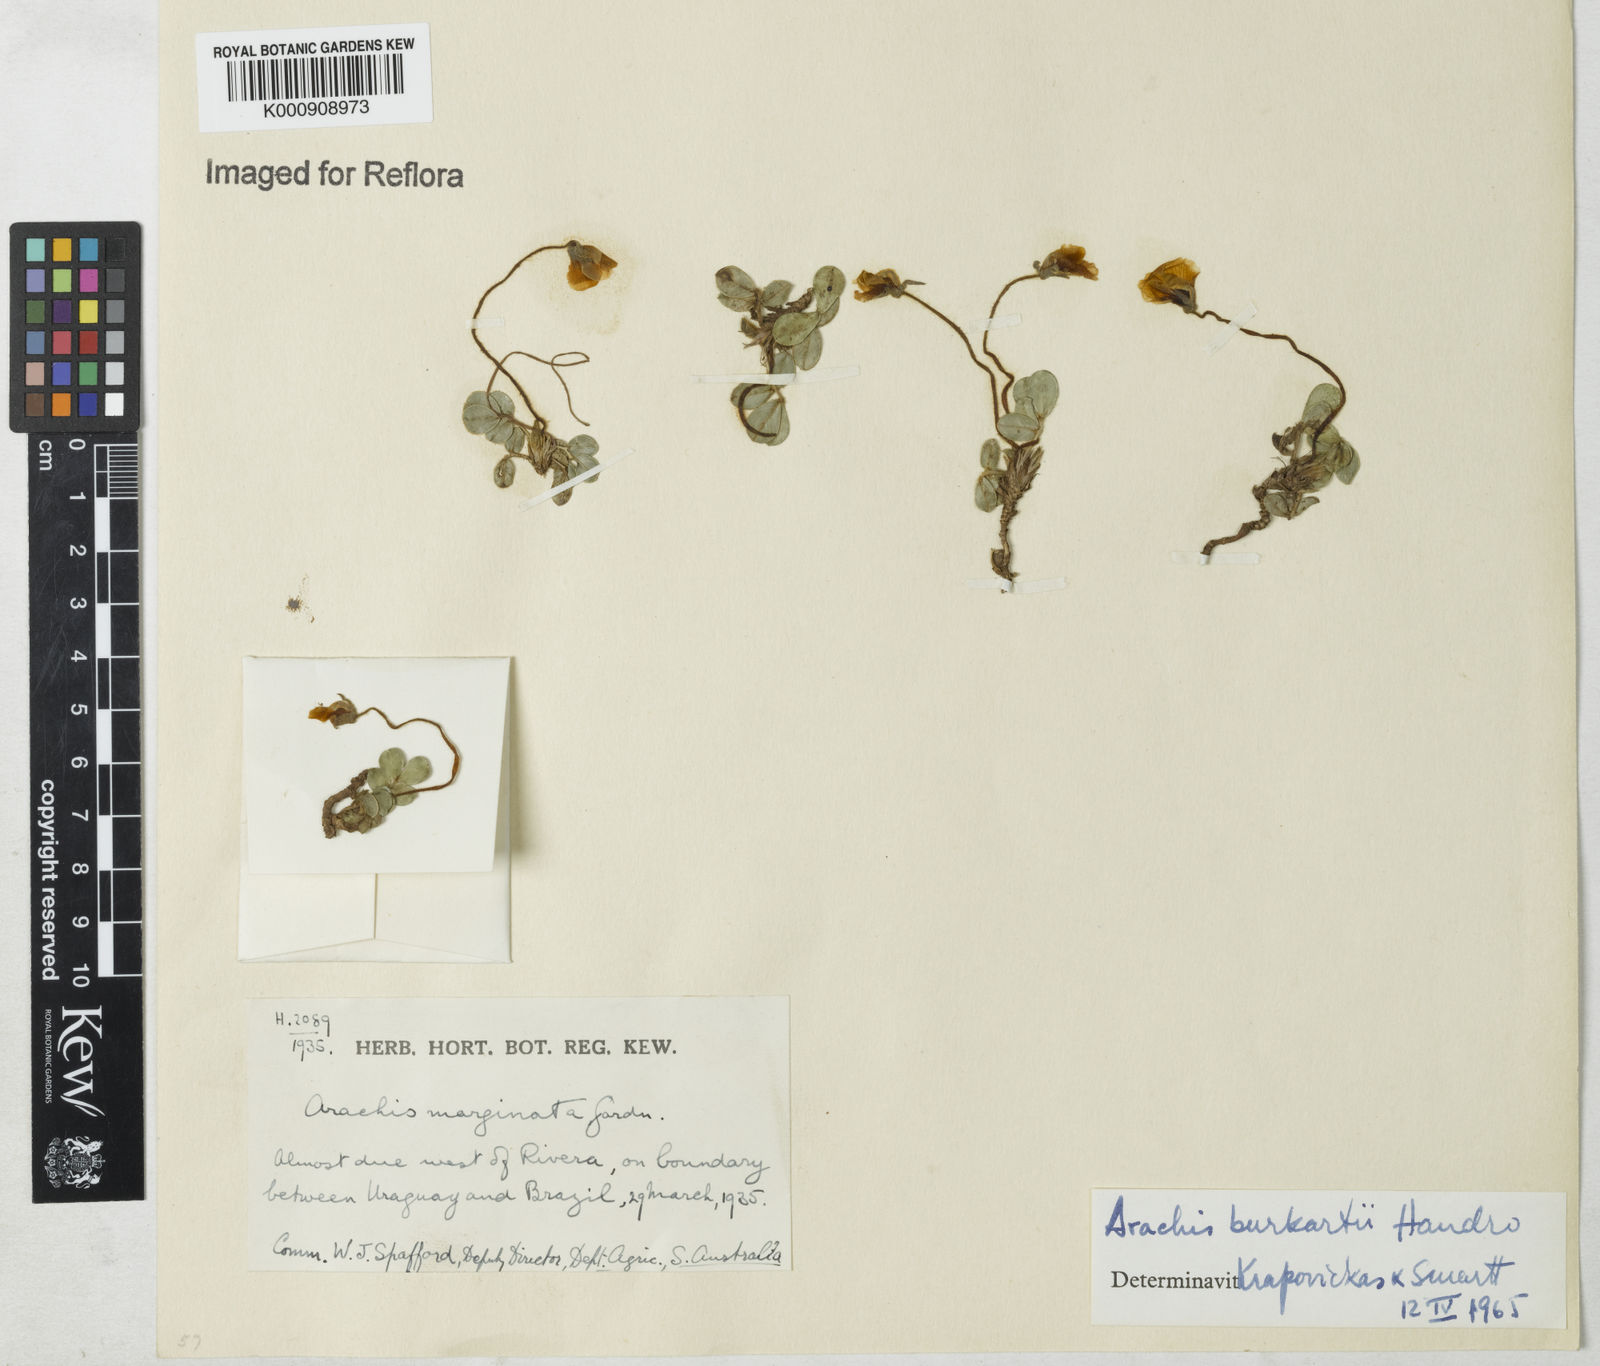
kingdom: Plantae
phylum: Tracheophyta
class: Magnoliopsida
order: Fabales
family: Fabaceae
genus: Arachis
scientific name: Arachis burkartii
